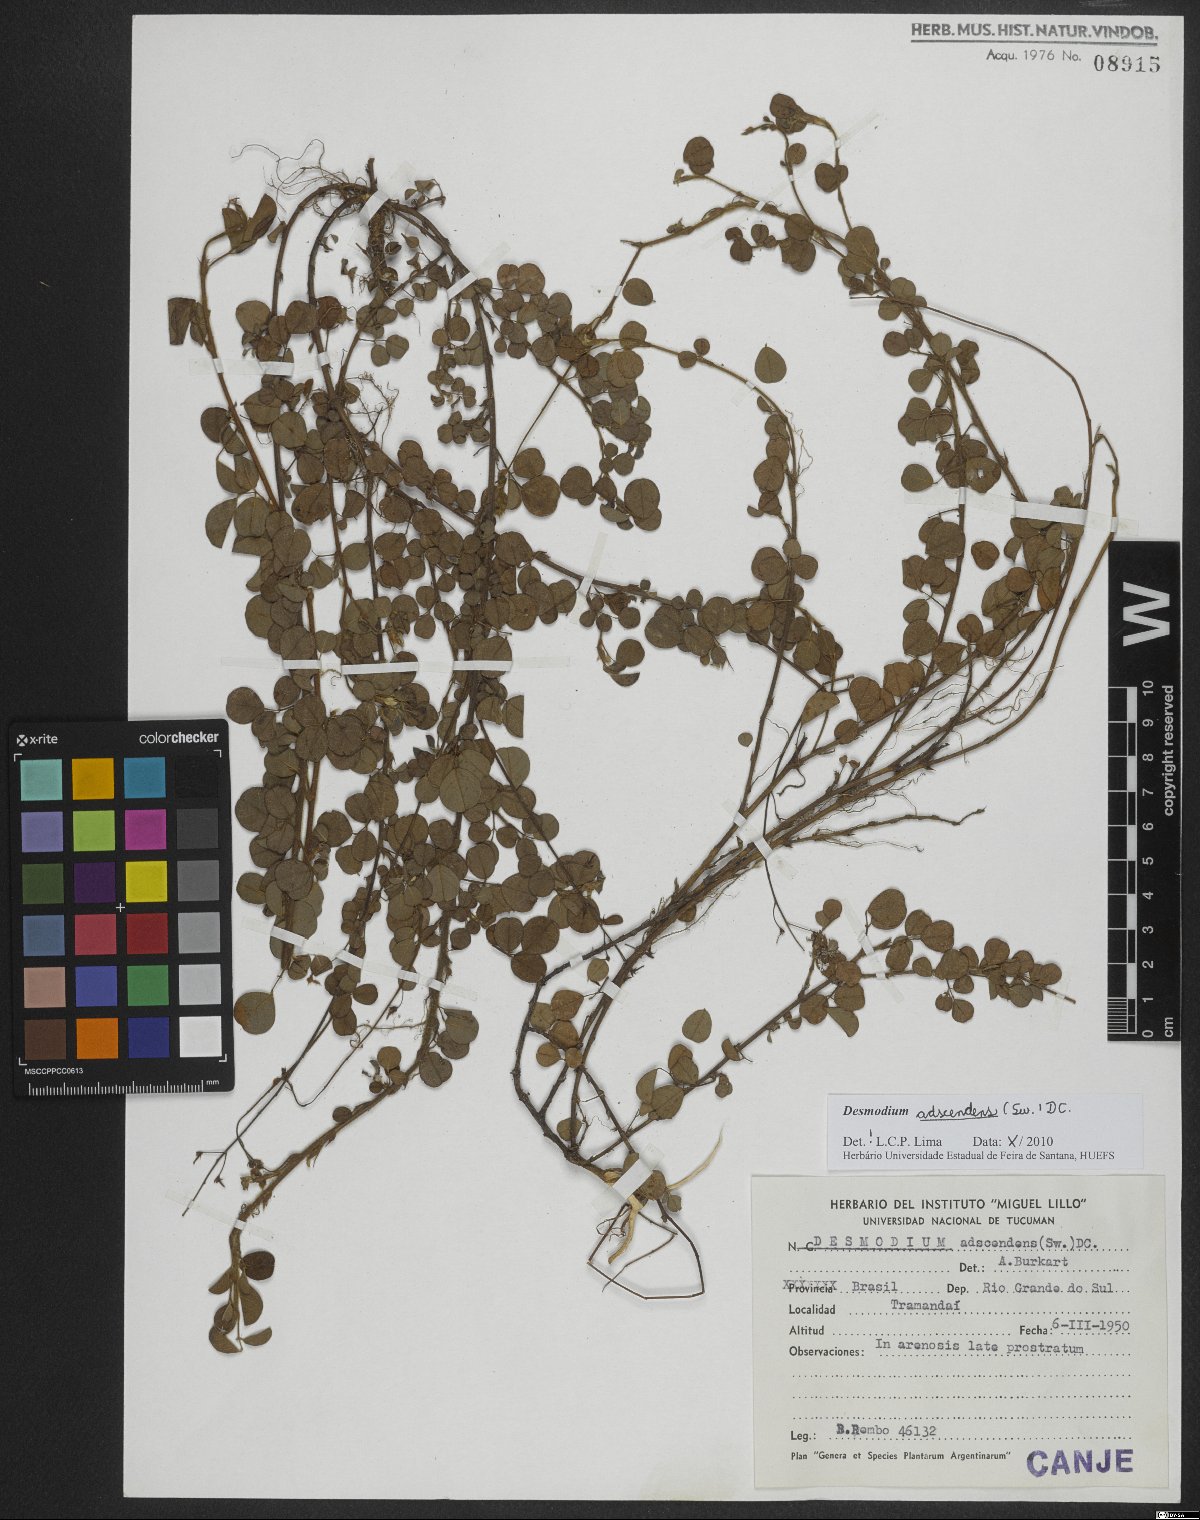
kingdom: Plantae
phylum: Tracheophyta
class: Magnoliopsida
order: Fabales
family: Fabaceae
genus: Grona
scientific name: Grona adscendens
